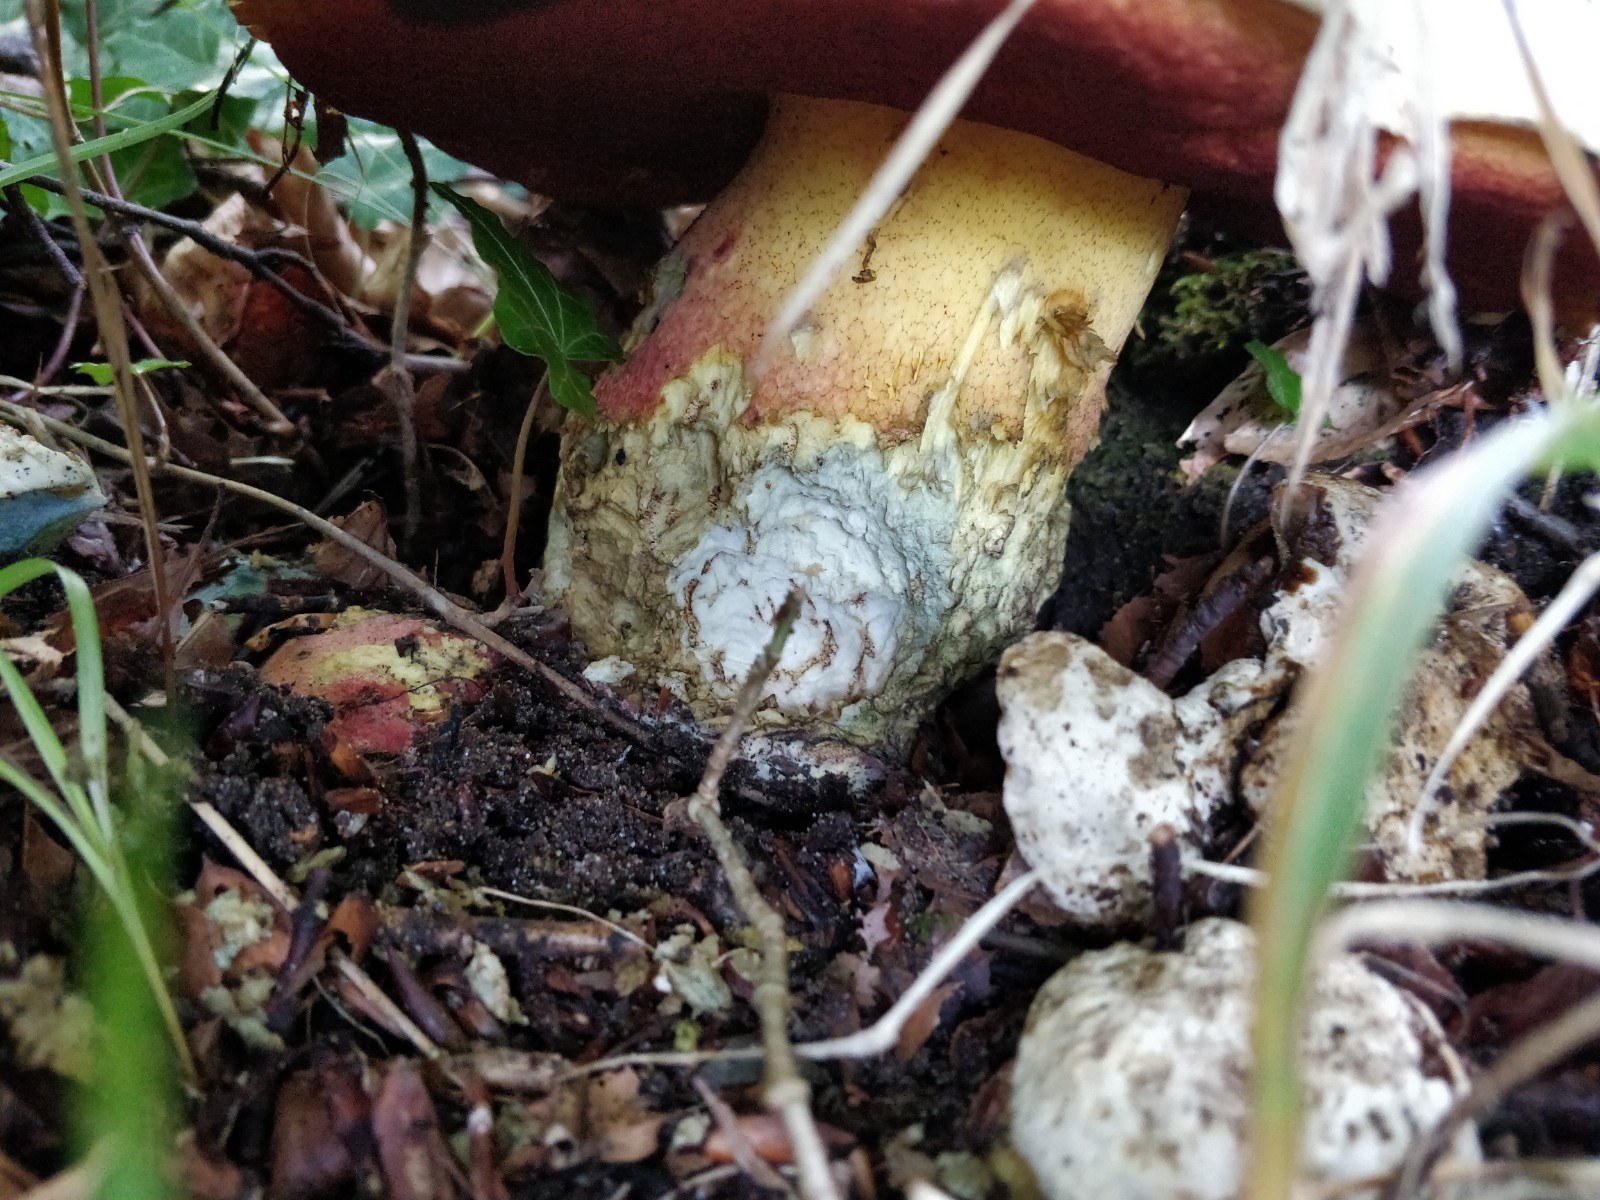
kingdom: Fungi
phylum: Basidiomycota
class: Agaricomycetes
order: Boletales
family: Boletaceae
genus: Rubroboletus
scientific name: Rubroboletus satanas
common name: Satans rørhat
